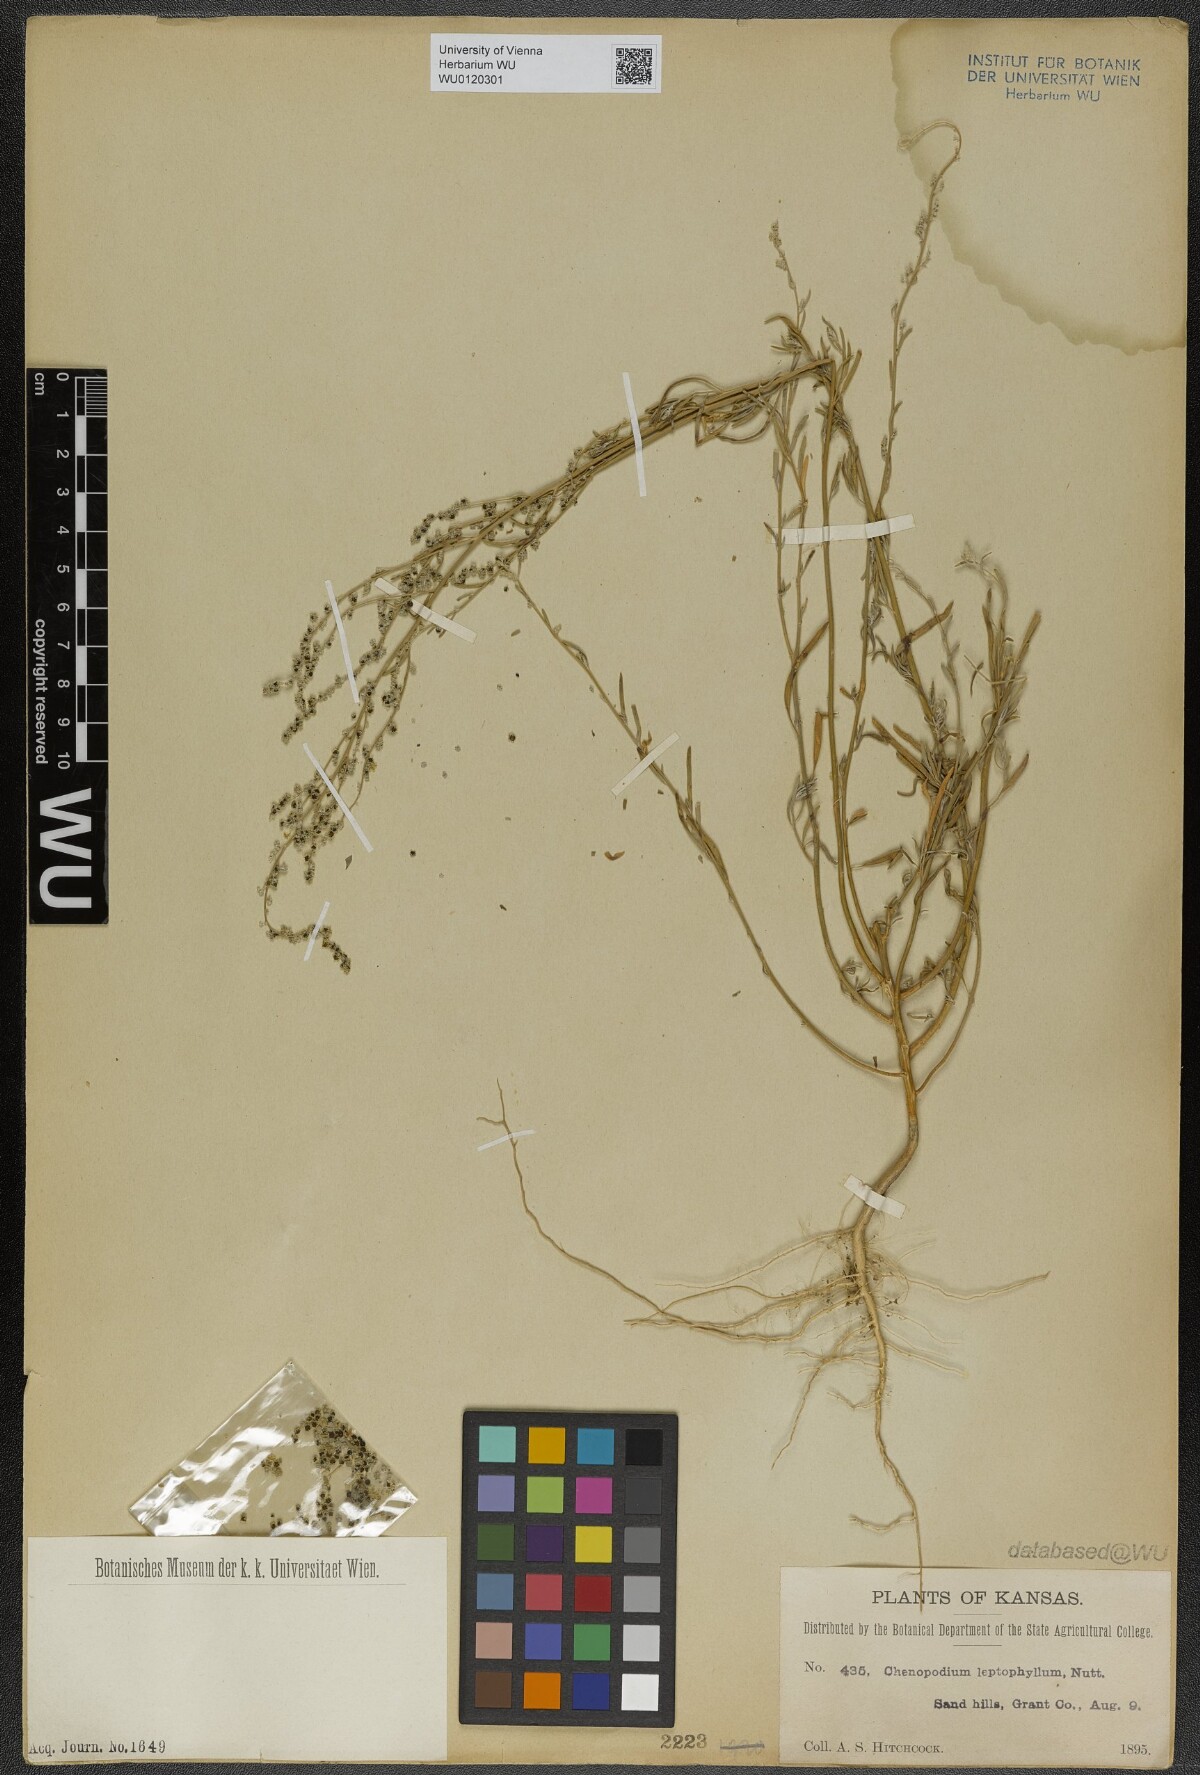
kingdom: Plantae
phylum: Tracheophyta
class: Magnoliopsida
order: Caryophyllales
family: Amaranthaceae
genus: Chenopodium
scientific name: Chenopodium leptophyllum
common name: Narrow-leaf goosefoot
